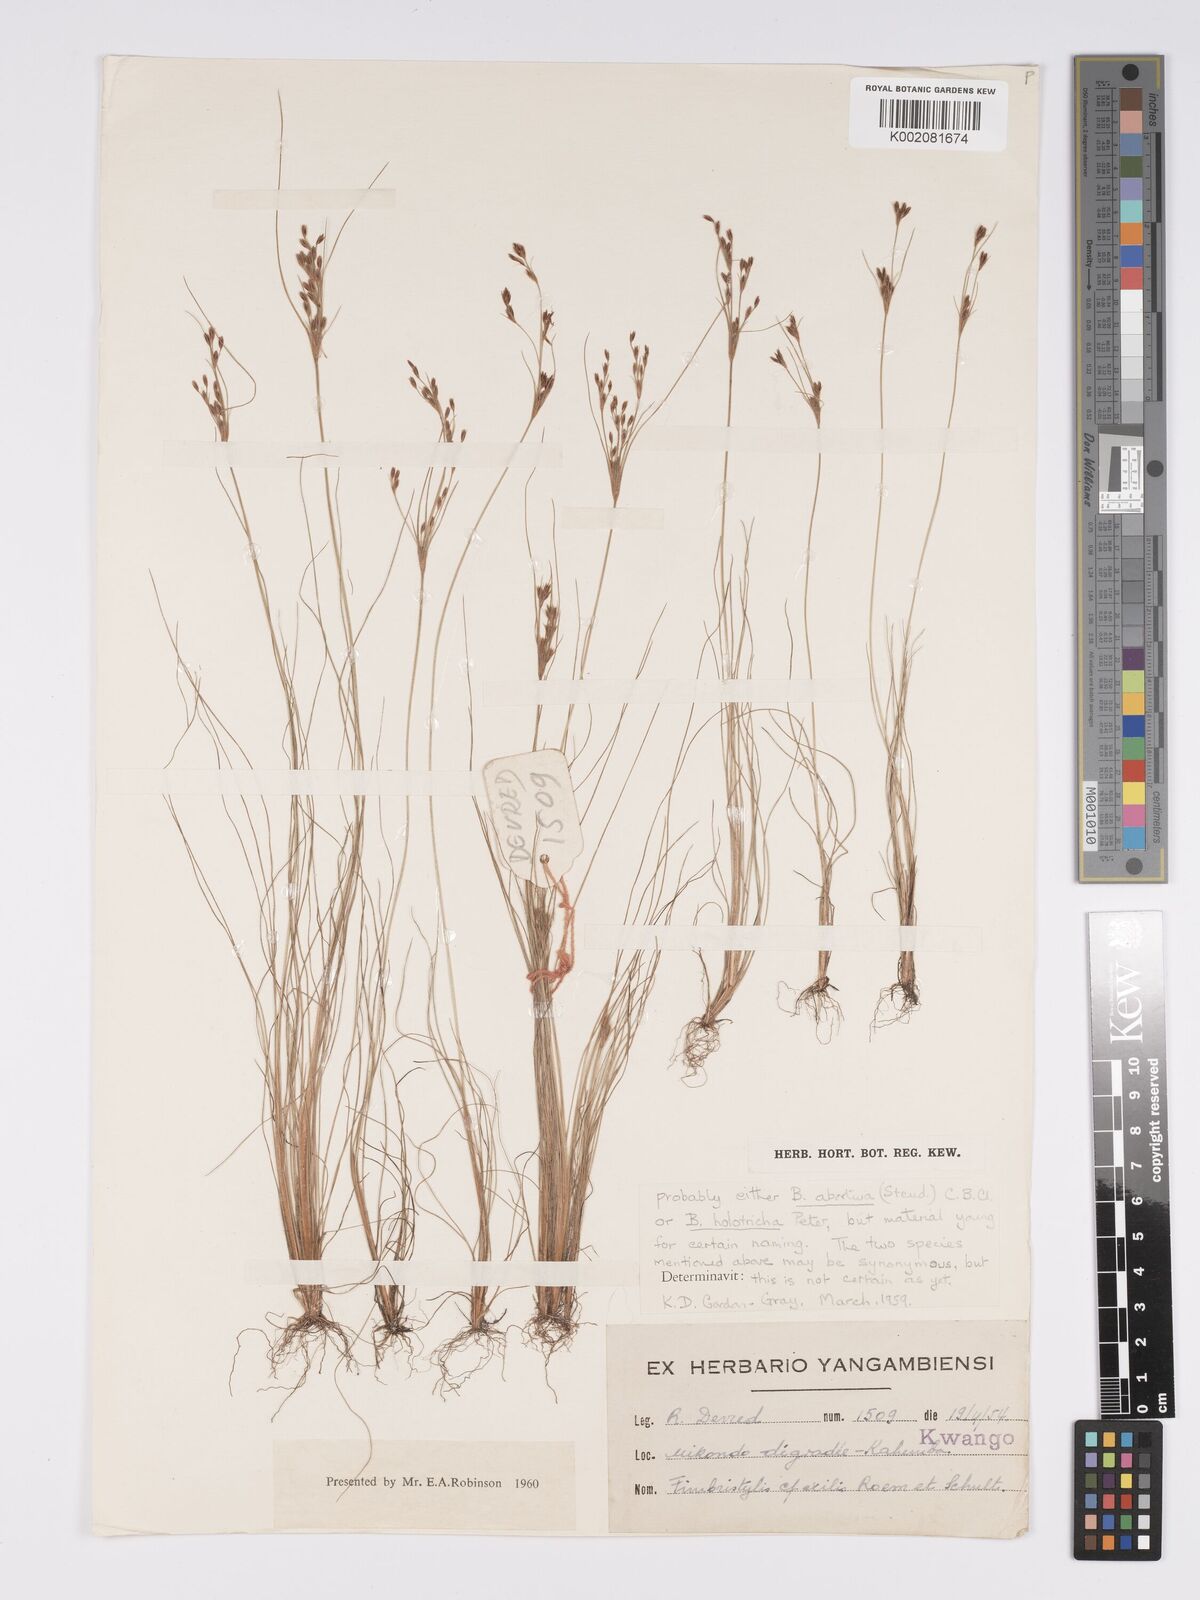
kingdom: Plantae
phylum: Tracheophyta
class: Liliopsida
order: Poales
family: Cyperaceae
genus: Bulbostylis
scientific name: Bulbostylis abortiva
